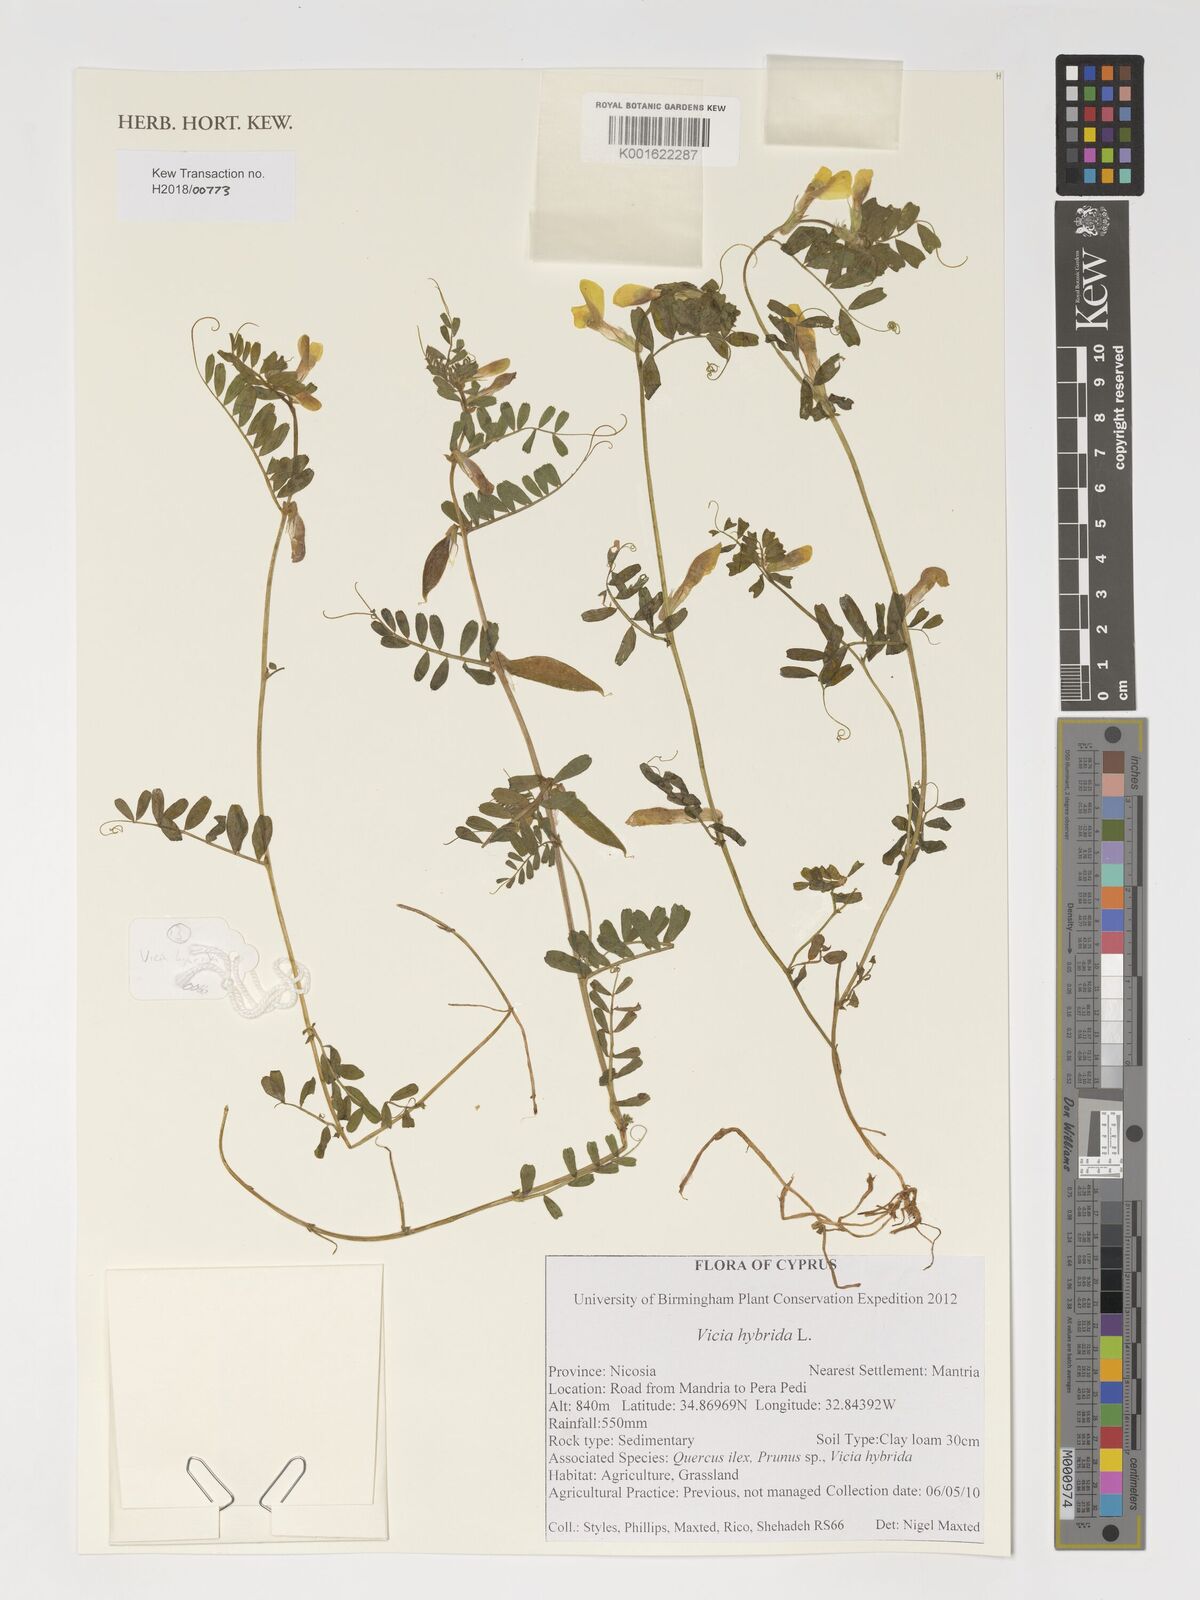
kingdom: Plantae
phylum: Tracheophyta
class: Magnoliopsida
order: Fabales
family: Fabaceae
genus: Vicia
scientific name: Vicia hybrida
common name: Hairy yellow vetch
